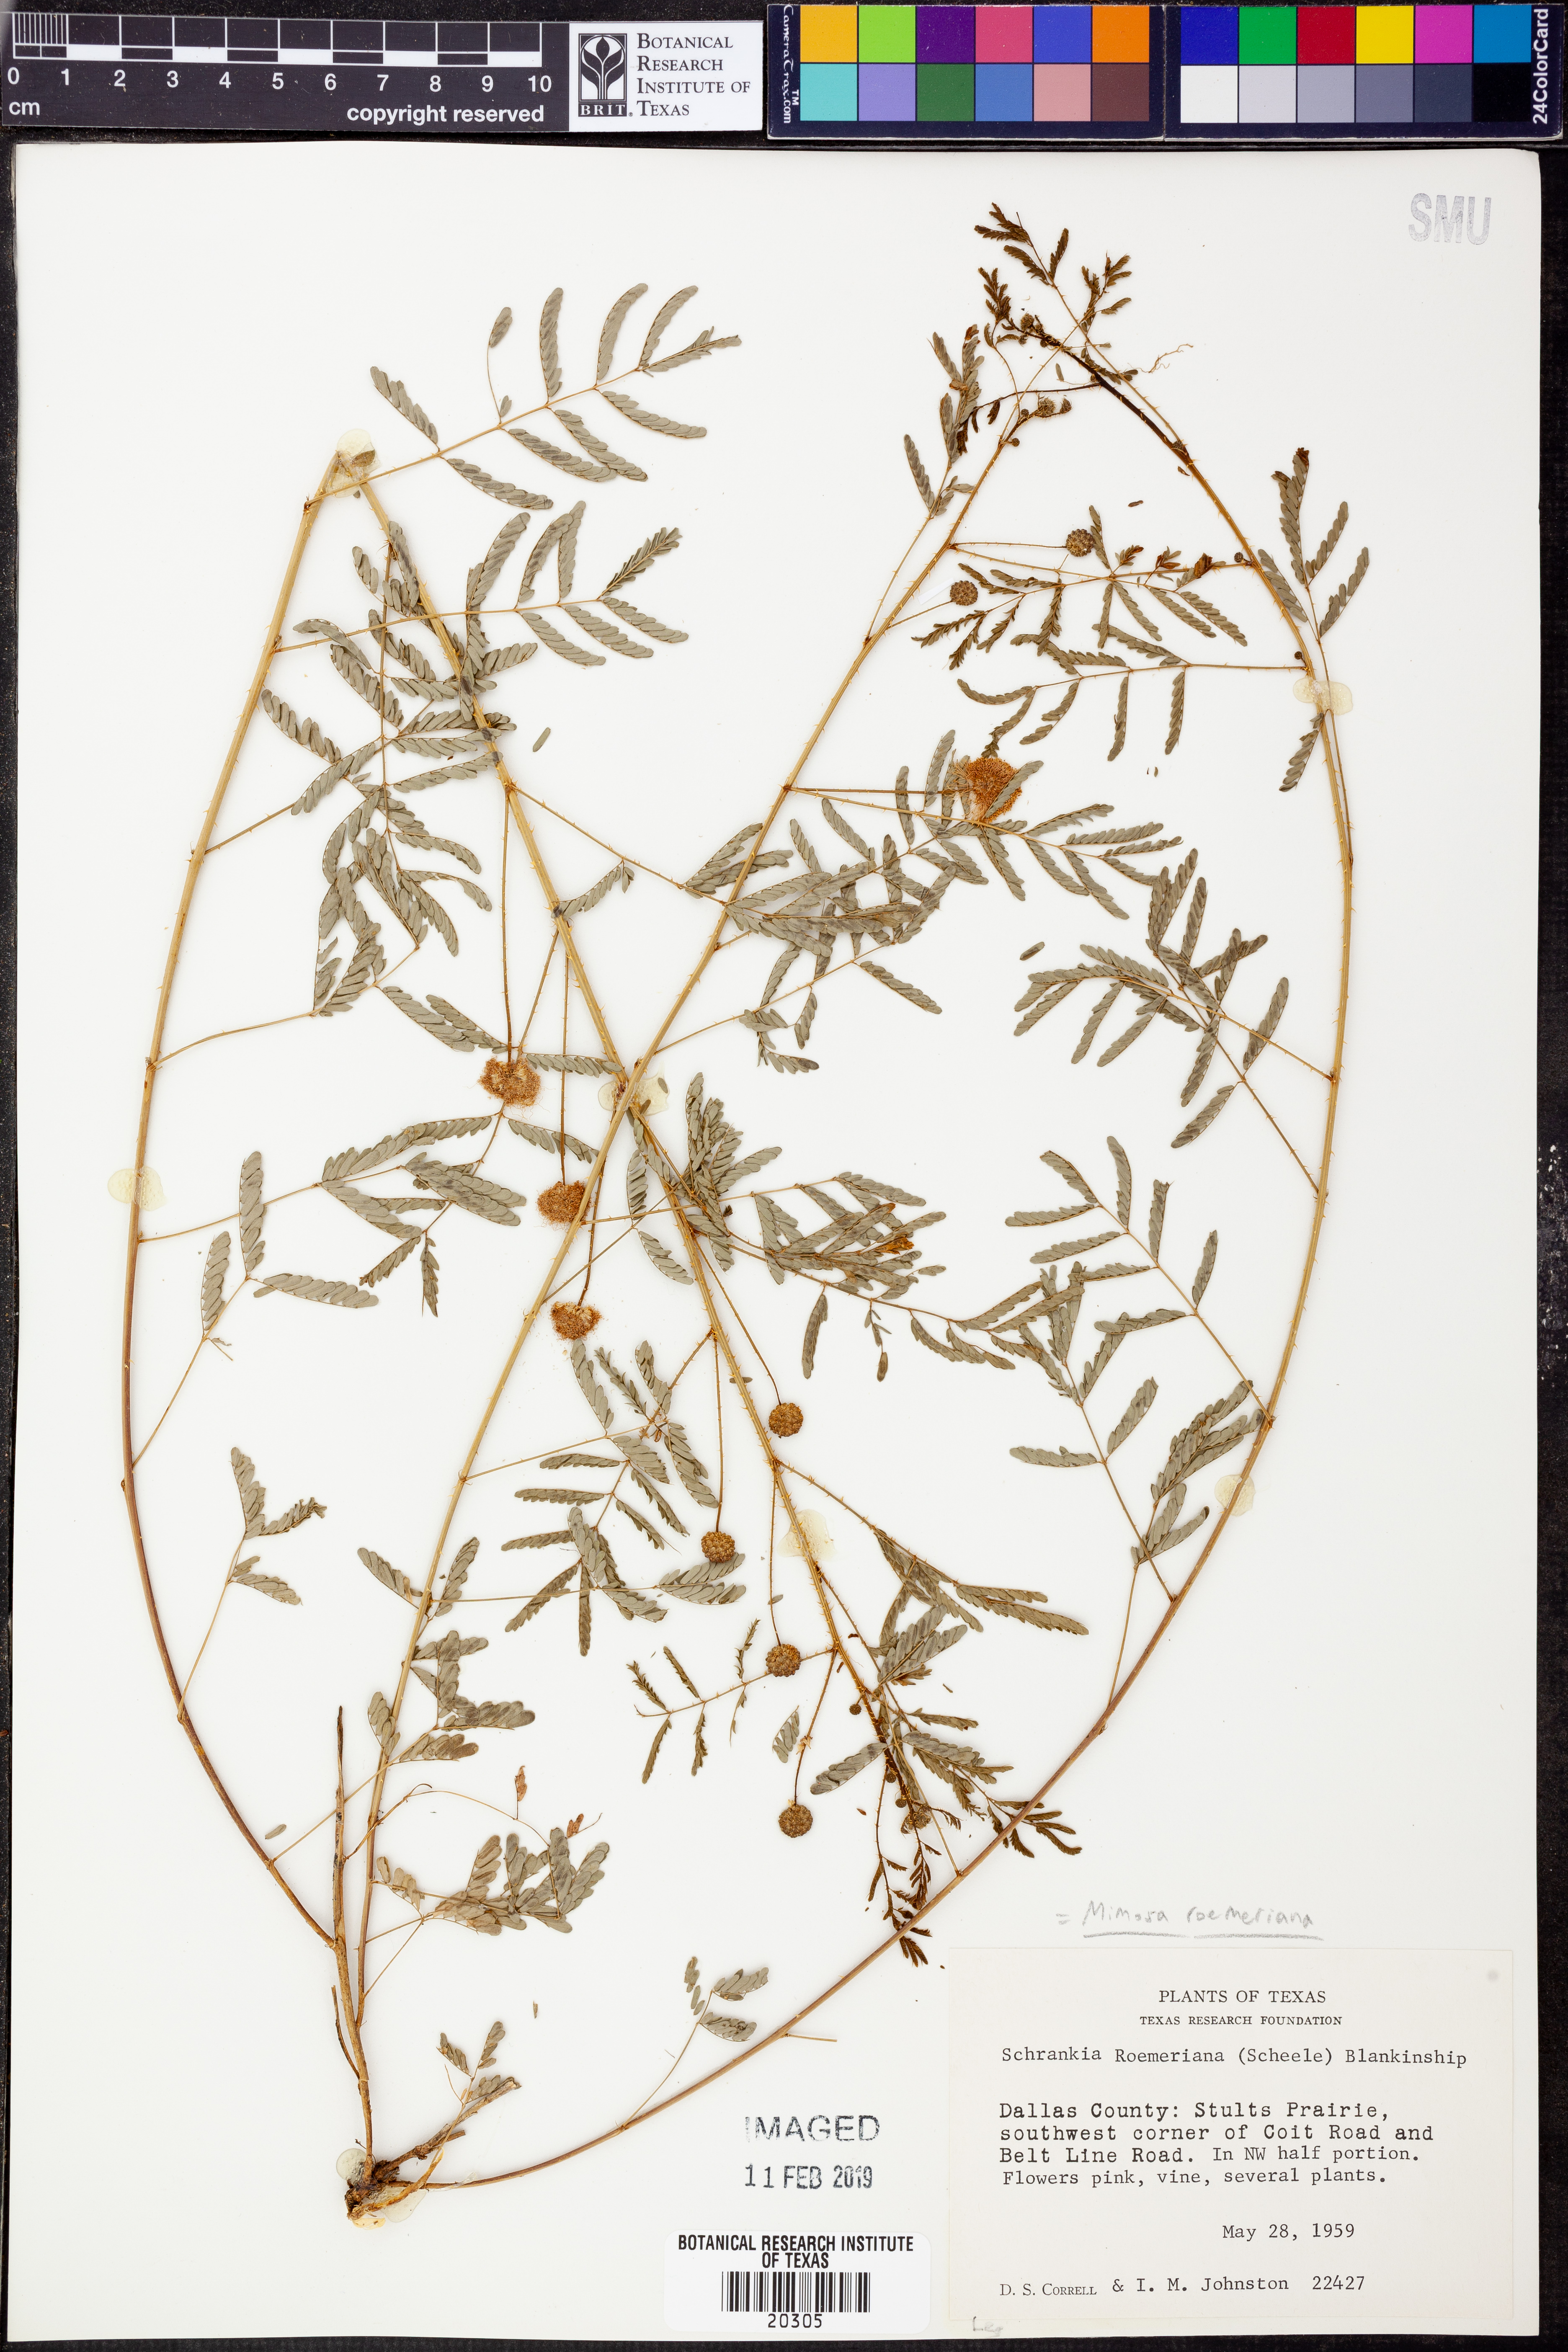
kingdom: Plantae
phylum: Tracheophyta
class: Magnoliopsida
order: Fabales
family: Fabaceae
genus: Mimosa
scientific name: Mimosa quadrivalvis
